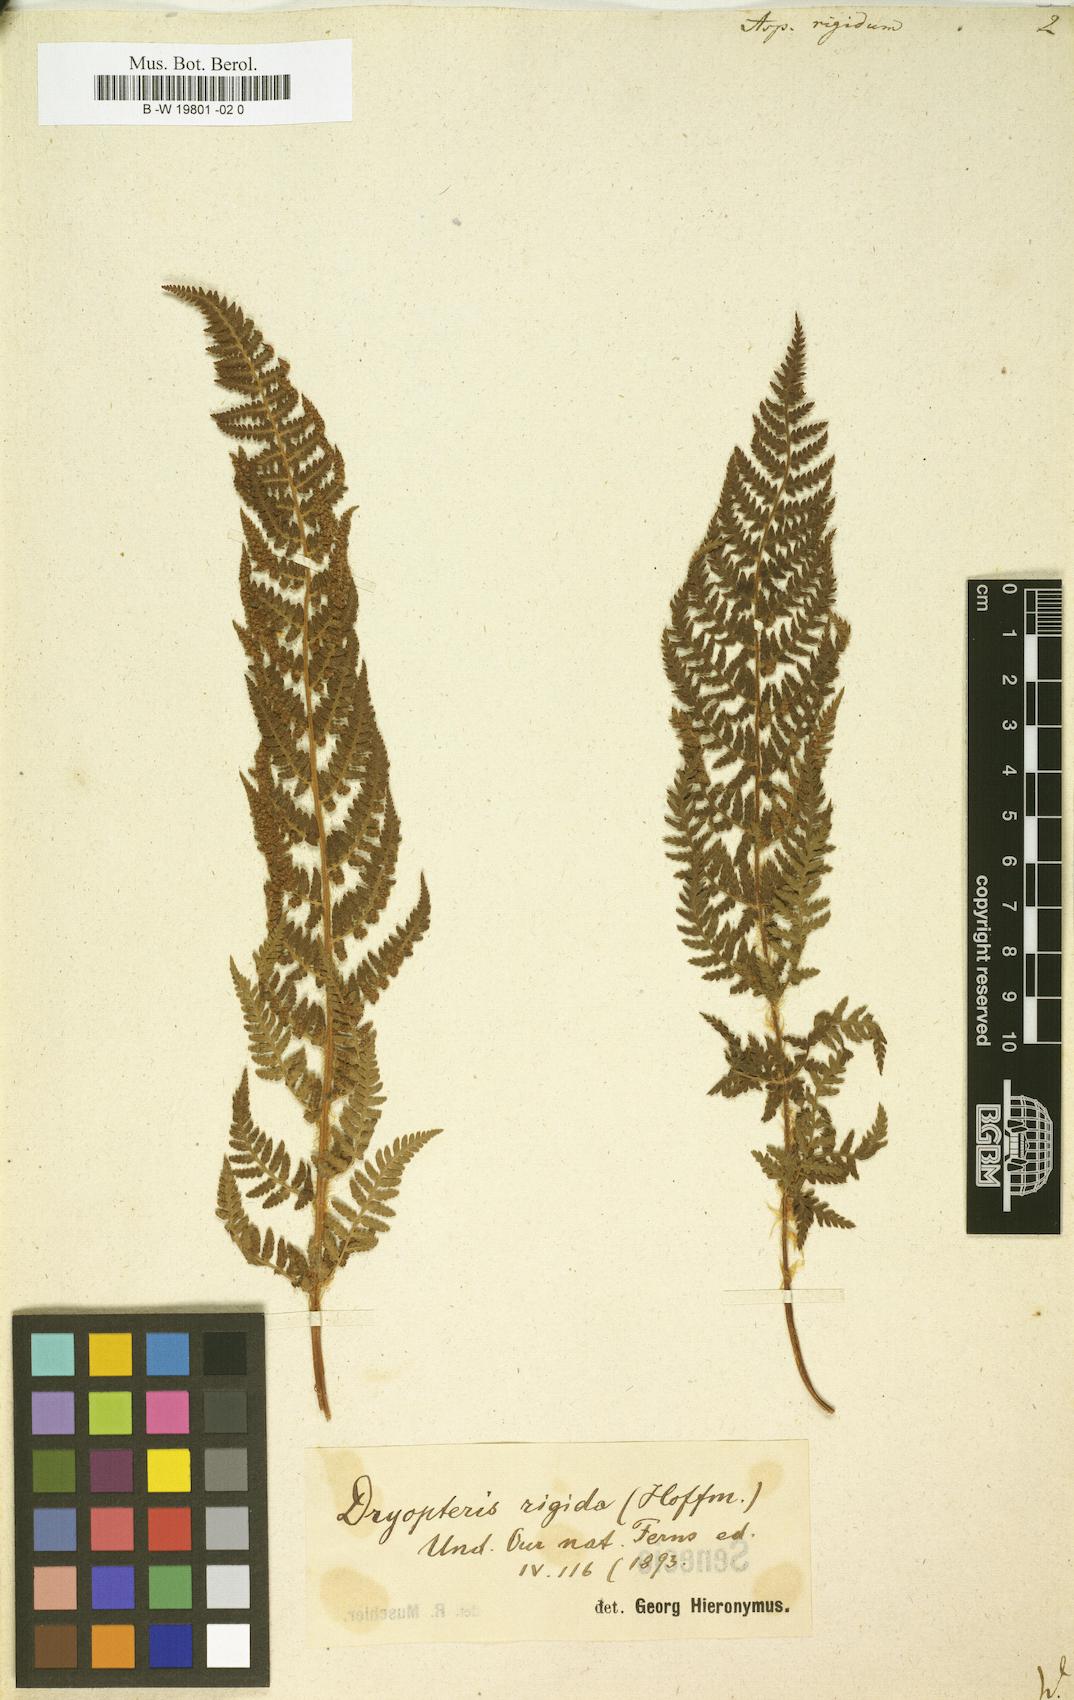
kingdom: Plantae
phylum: Tracheophyta
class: Polypodiopsida
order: Polypodiales
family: Dryopteridaceae
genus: Dryopteris
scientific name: Dryopteris villarii
